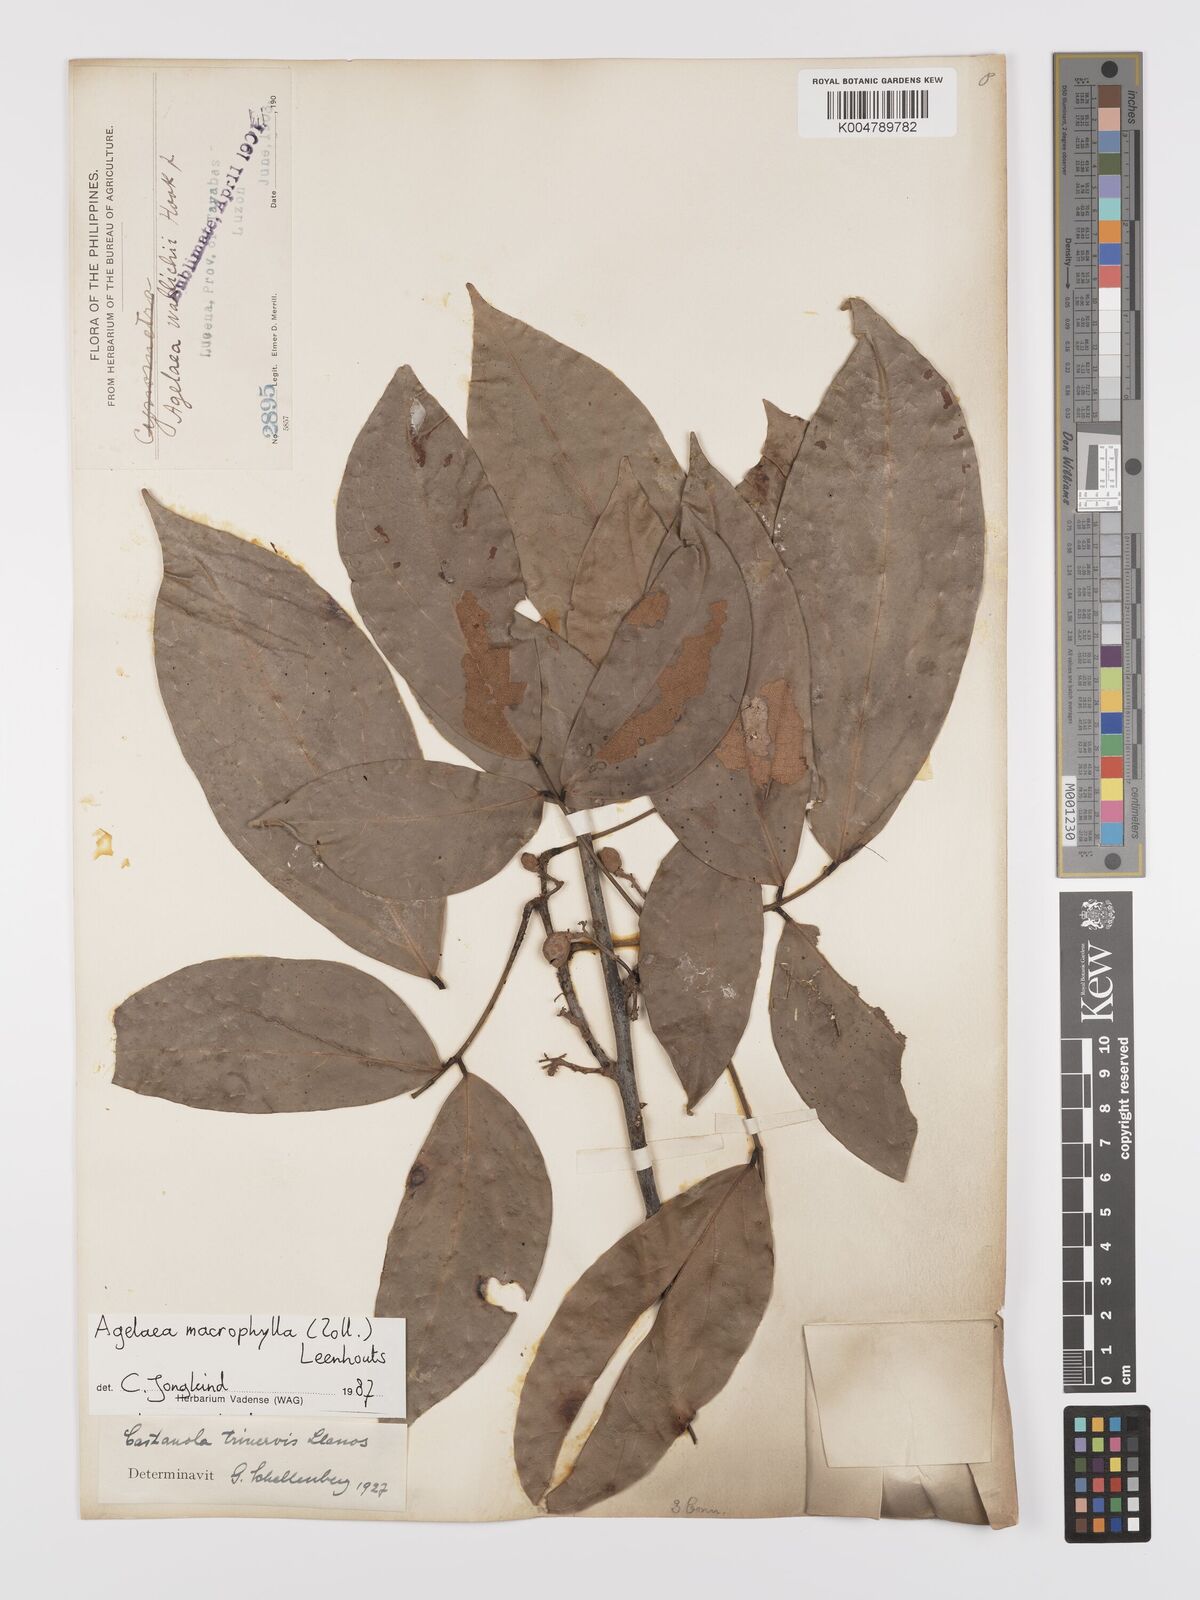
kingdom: Plantae
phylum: Tracheophyta
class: Magnoliopsida
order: Oxalidales
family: Connaraceae
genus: Agelaea
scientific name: Agelaea trinervis
